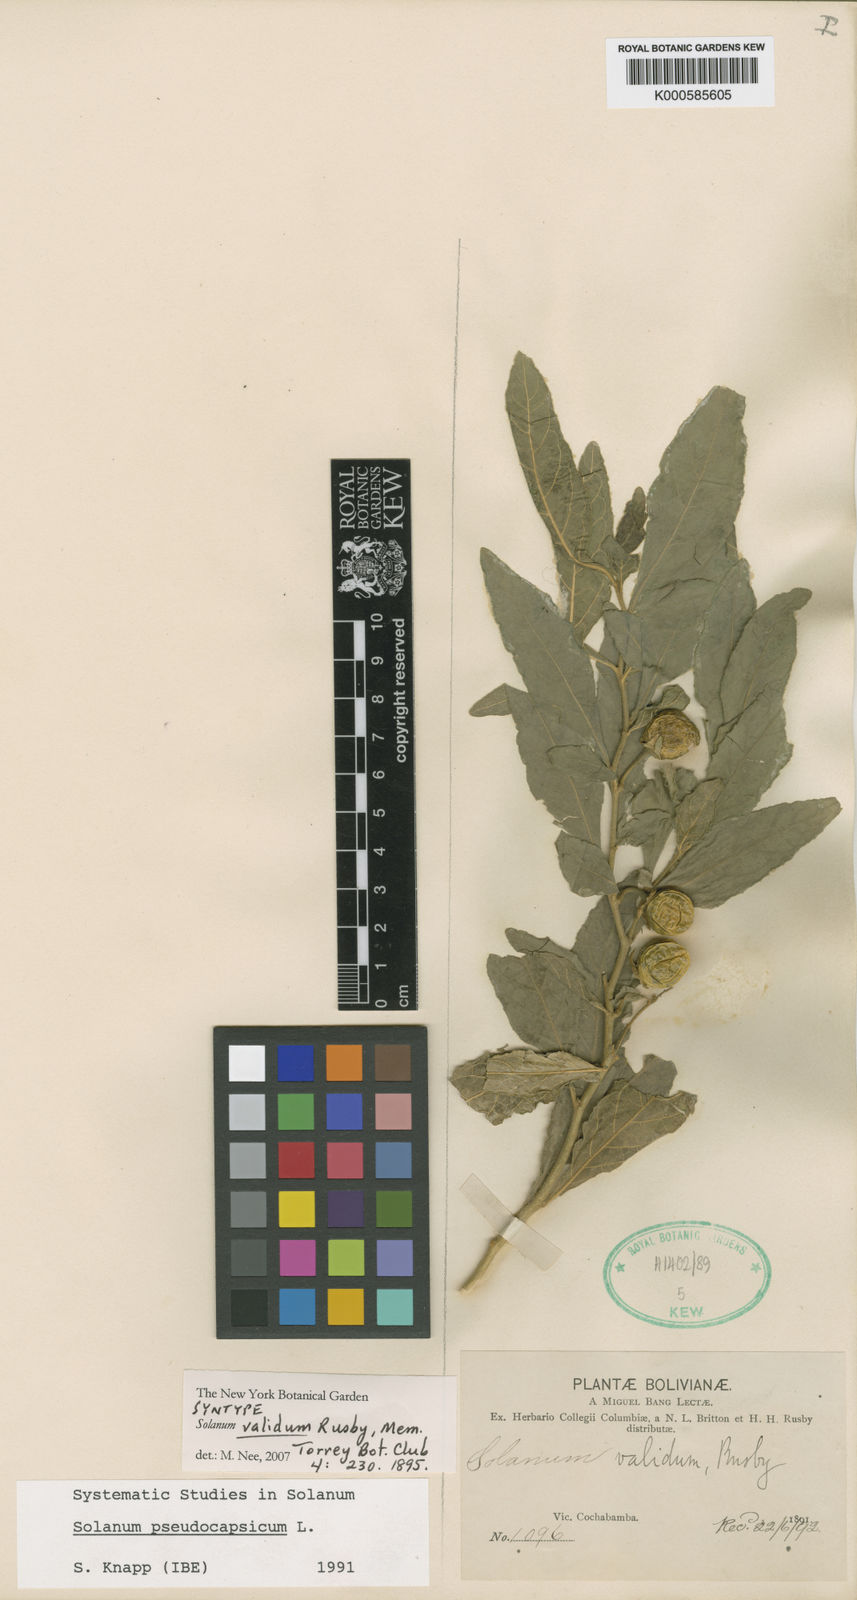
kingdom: Plantae
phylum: Tracheophyta
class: Magnoliopsida
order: Solanales
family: Solanaceae
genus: Solanum
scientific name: Solanum pseudocapsicum
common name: Jerusalem cherry
